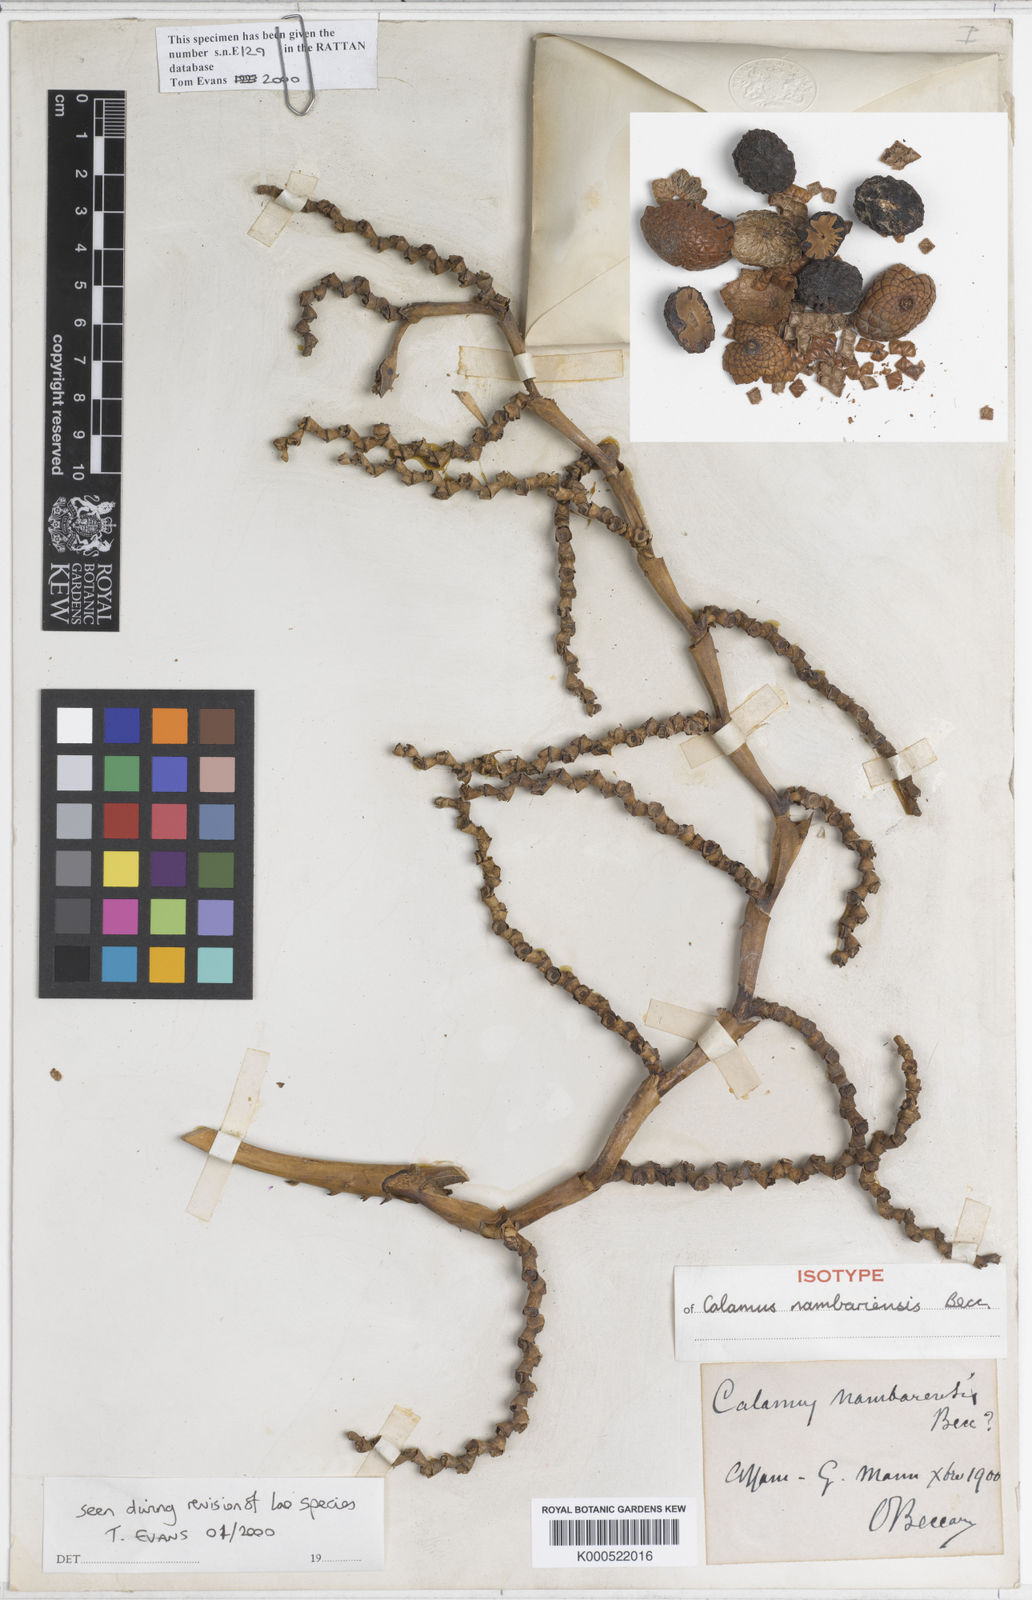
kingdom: Plantae
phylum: Tracheophyta
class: Liliopsida
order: Arecales
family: Arecaceae
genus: Calamus
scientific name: Calamus inermis
